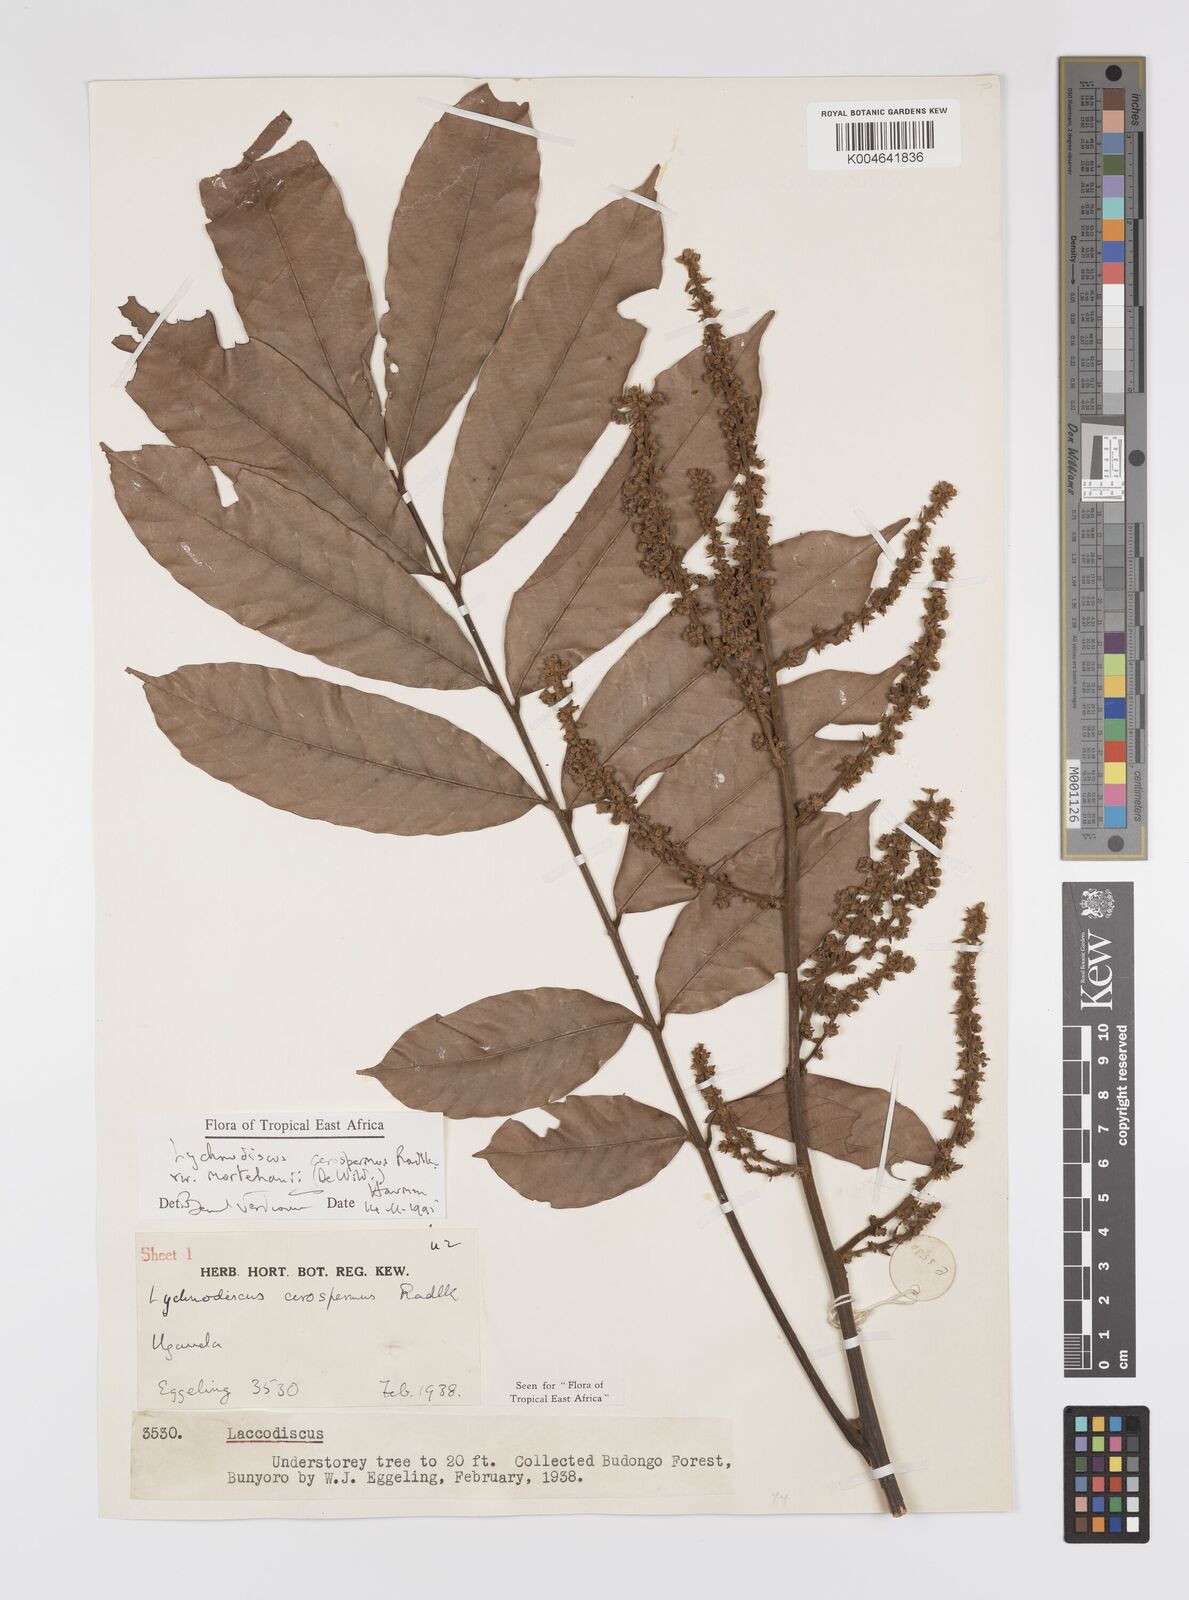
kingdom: Plantae
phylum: Tracheophyta
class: Magnoliopsida
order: Sapindales
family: Sapindaceae
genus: Lychnodiscus
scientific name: Lychnodiscus cerospermus
